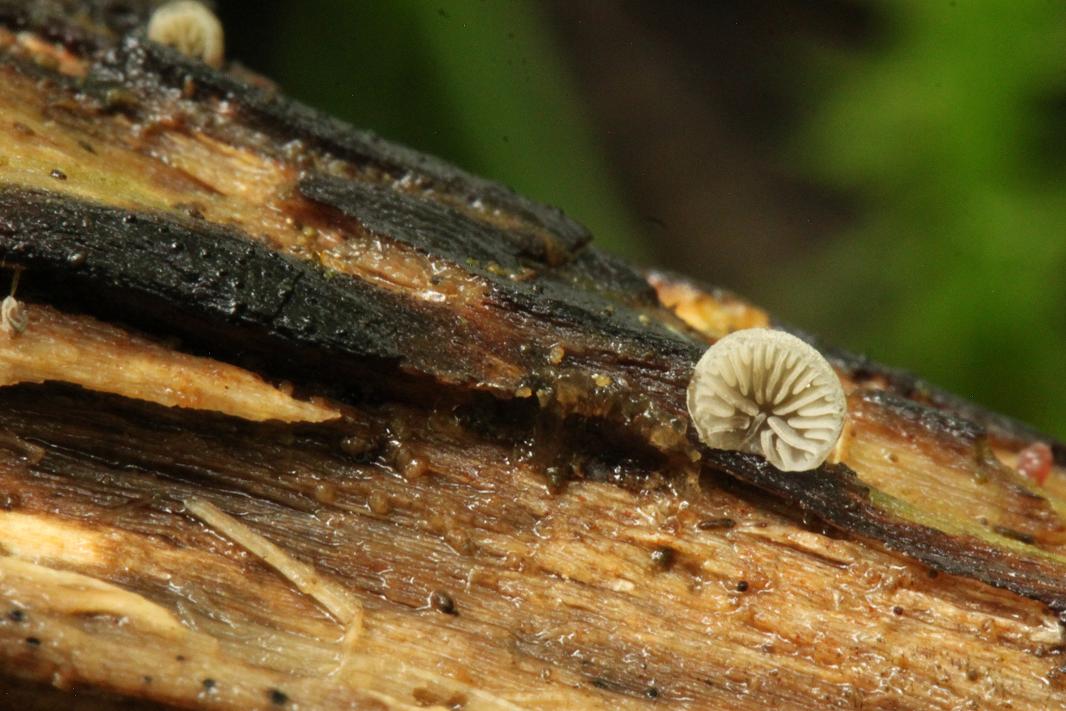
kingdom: Fungi
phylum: Basidiomycota
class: Agaricomycetes
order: Agaricales
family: Pleurotaceae
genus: Resupinatus
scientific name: Resupinatus applicatus
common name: lysfiltet barkhat
